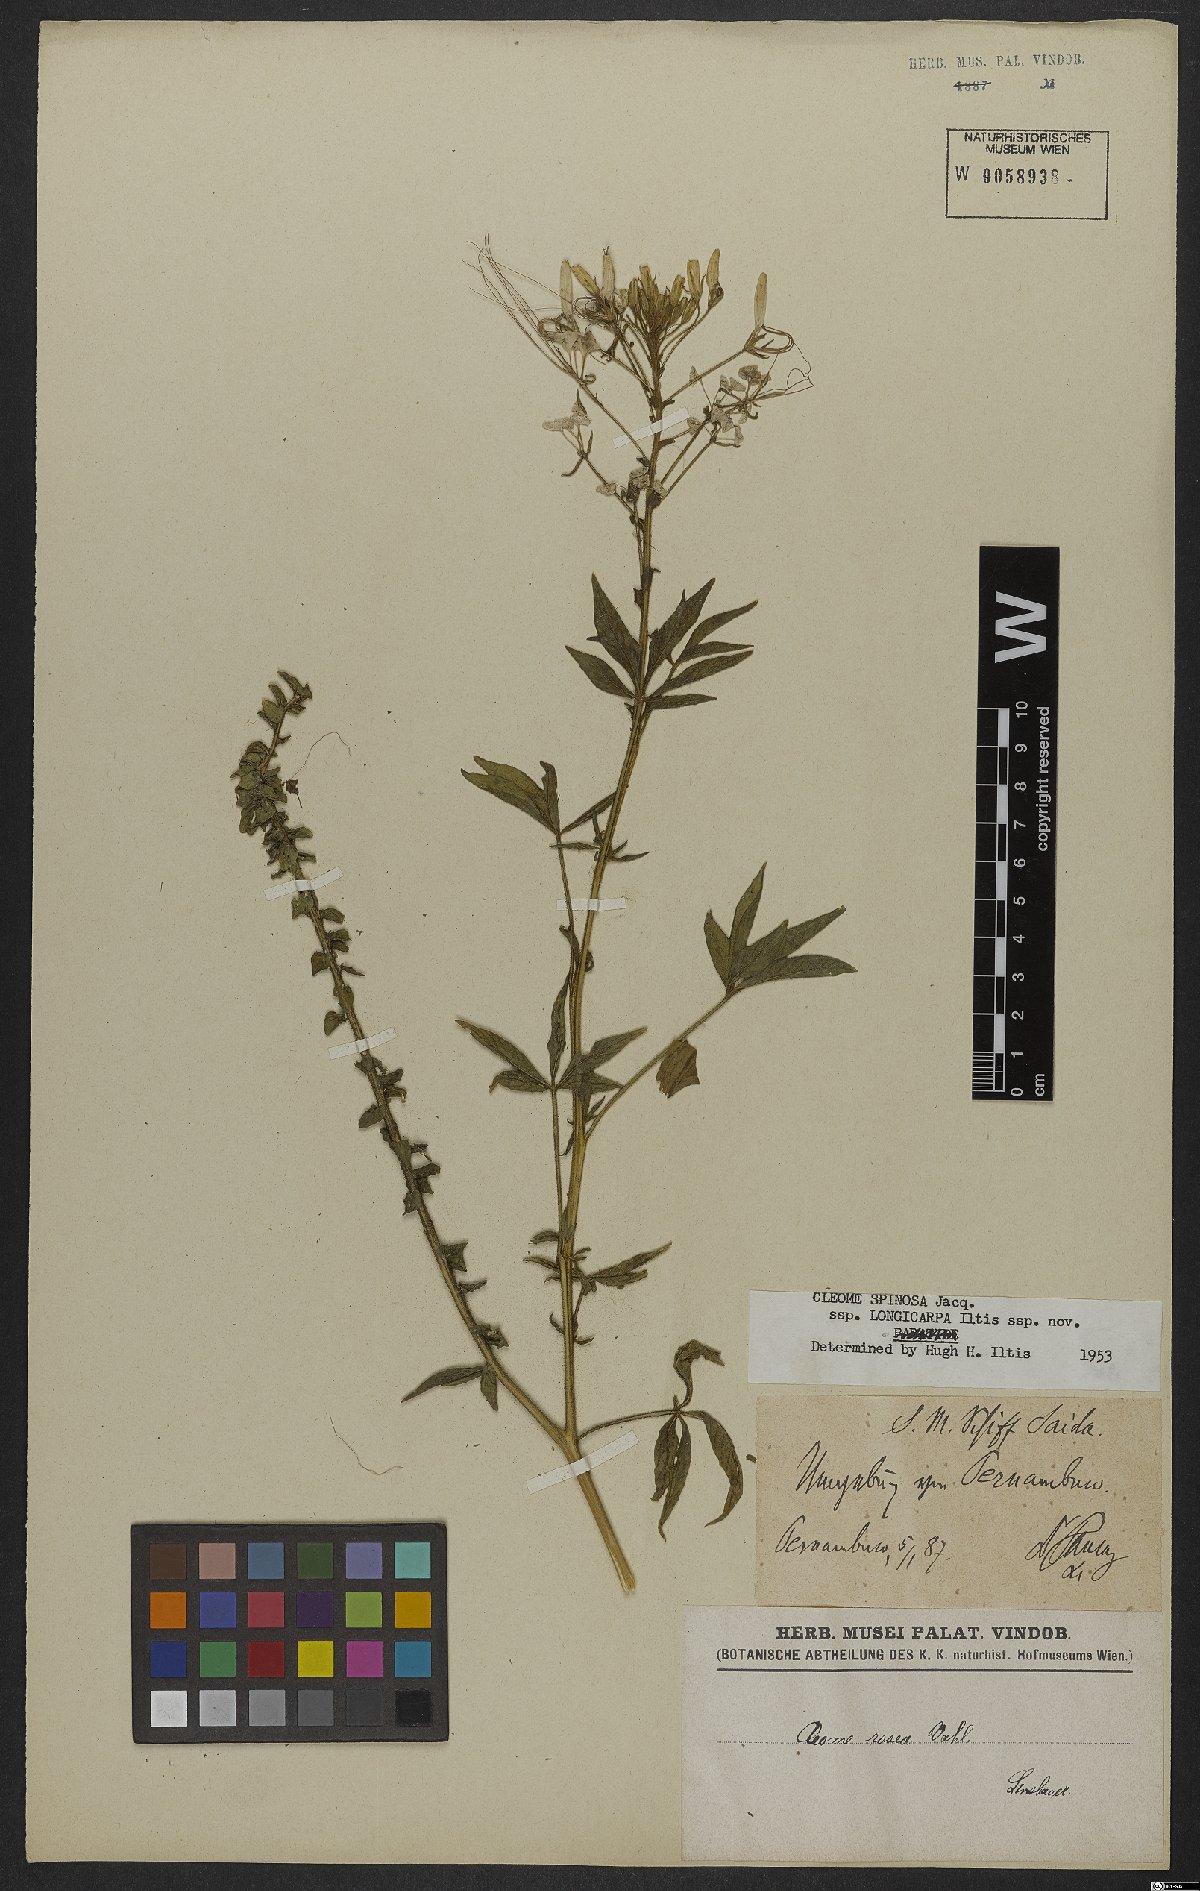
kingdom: Plantae
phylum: Tracheophyta
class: Magnoliopsida
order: Brassicales
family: Cleomaceae
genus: Tarenaya
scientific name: Tarenaya
